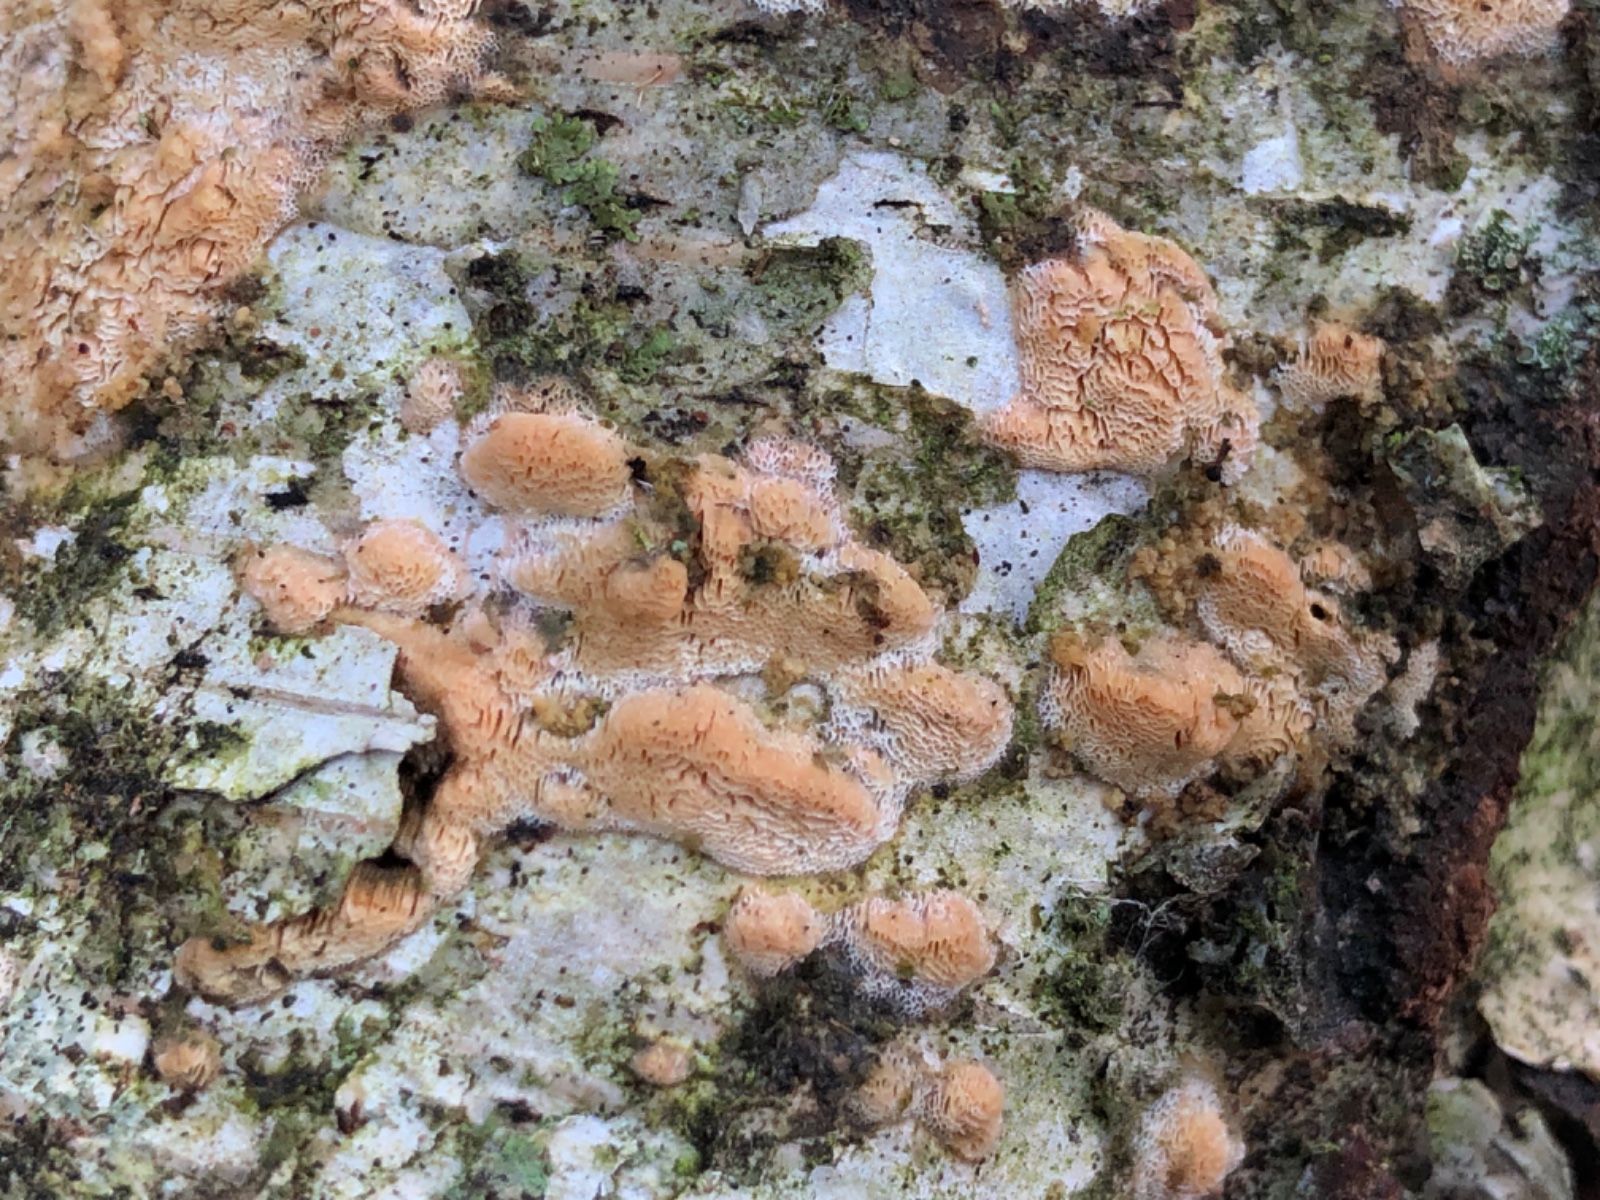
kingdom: Fungi
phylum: Basidiomycota
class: Agaricomycetes
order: Polyporales
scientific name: Polyporales
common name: poresvampordenen
